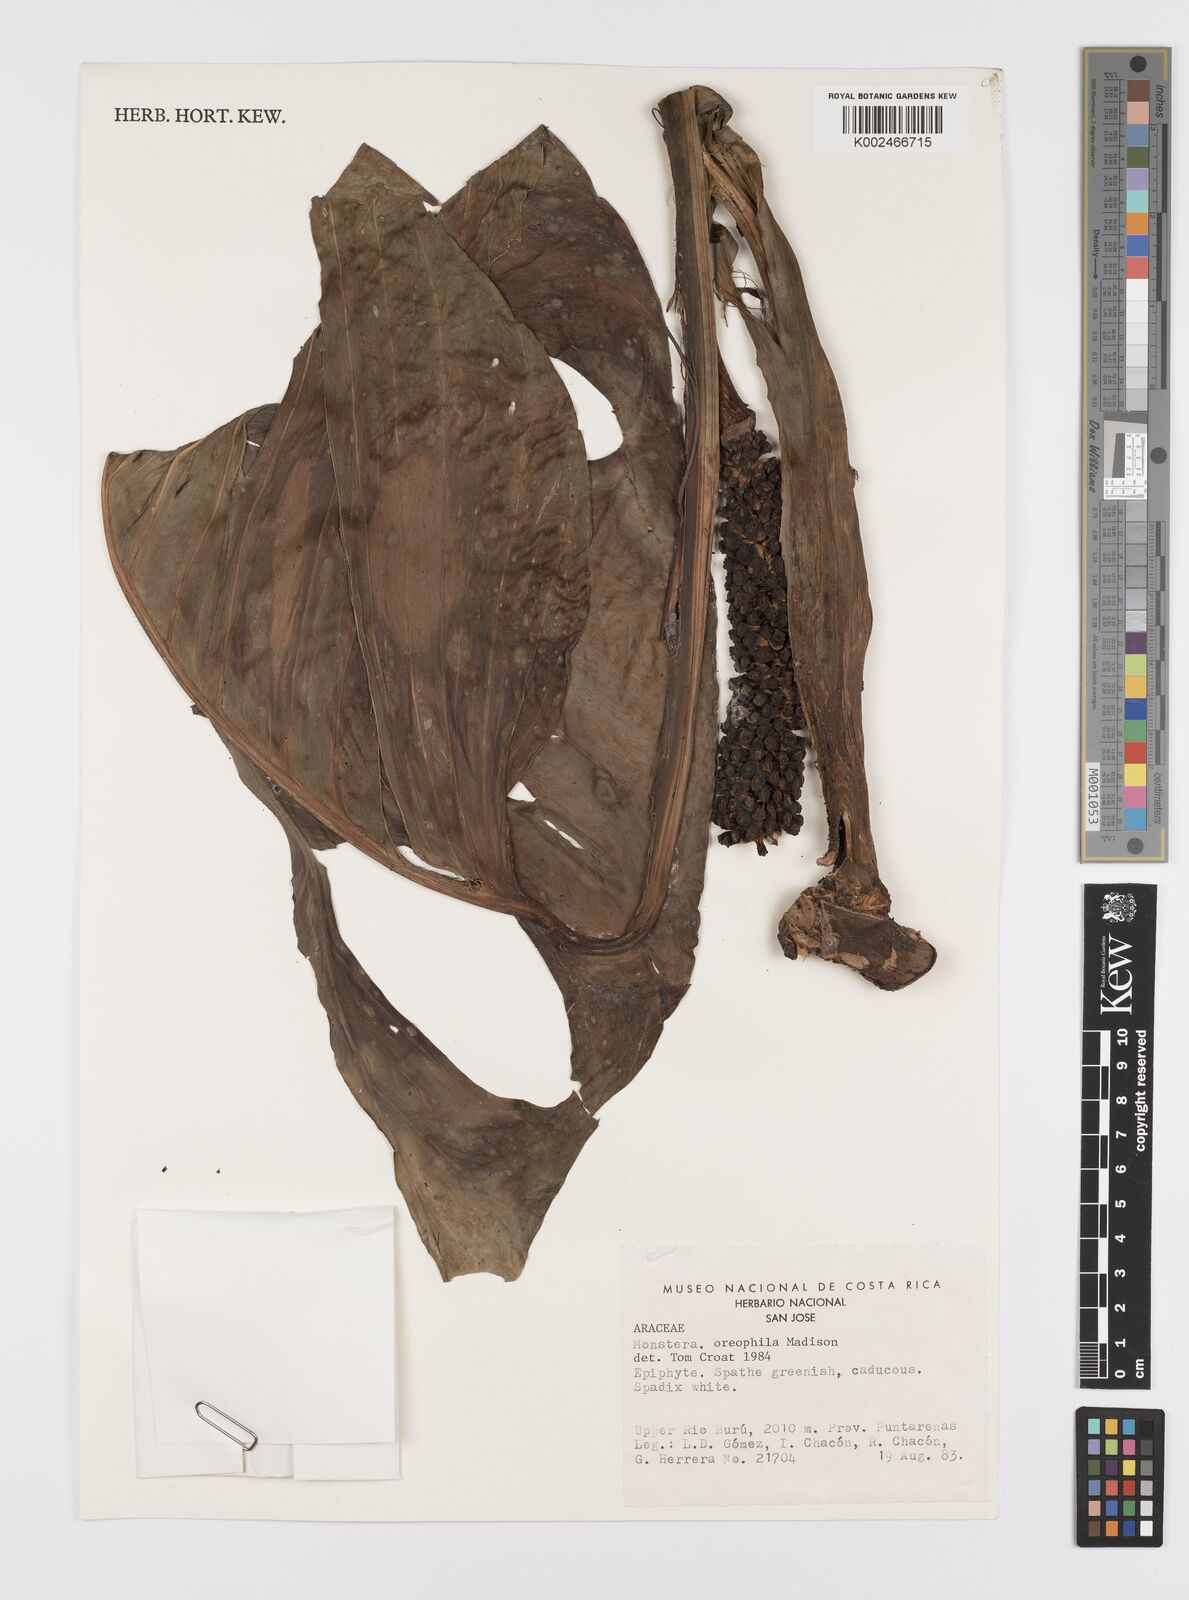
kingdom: Plantae
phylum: Tracheophyta
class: Liliopsida
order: Alismatales
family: Araceae
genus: Monstera
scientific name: Monstera oreophila
